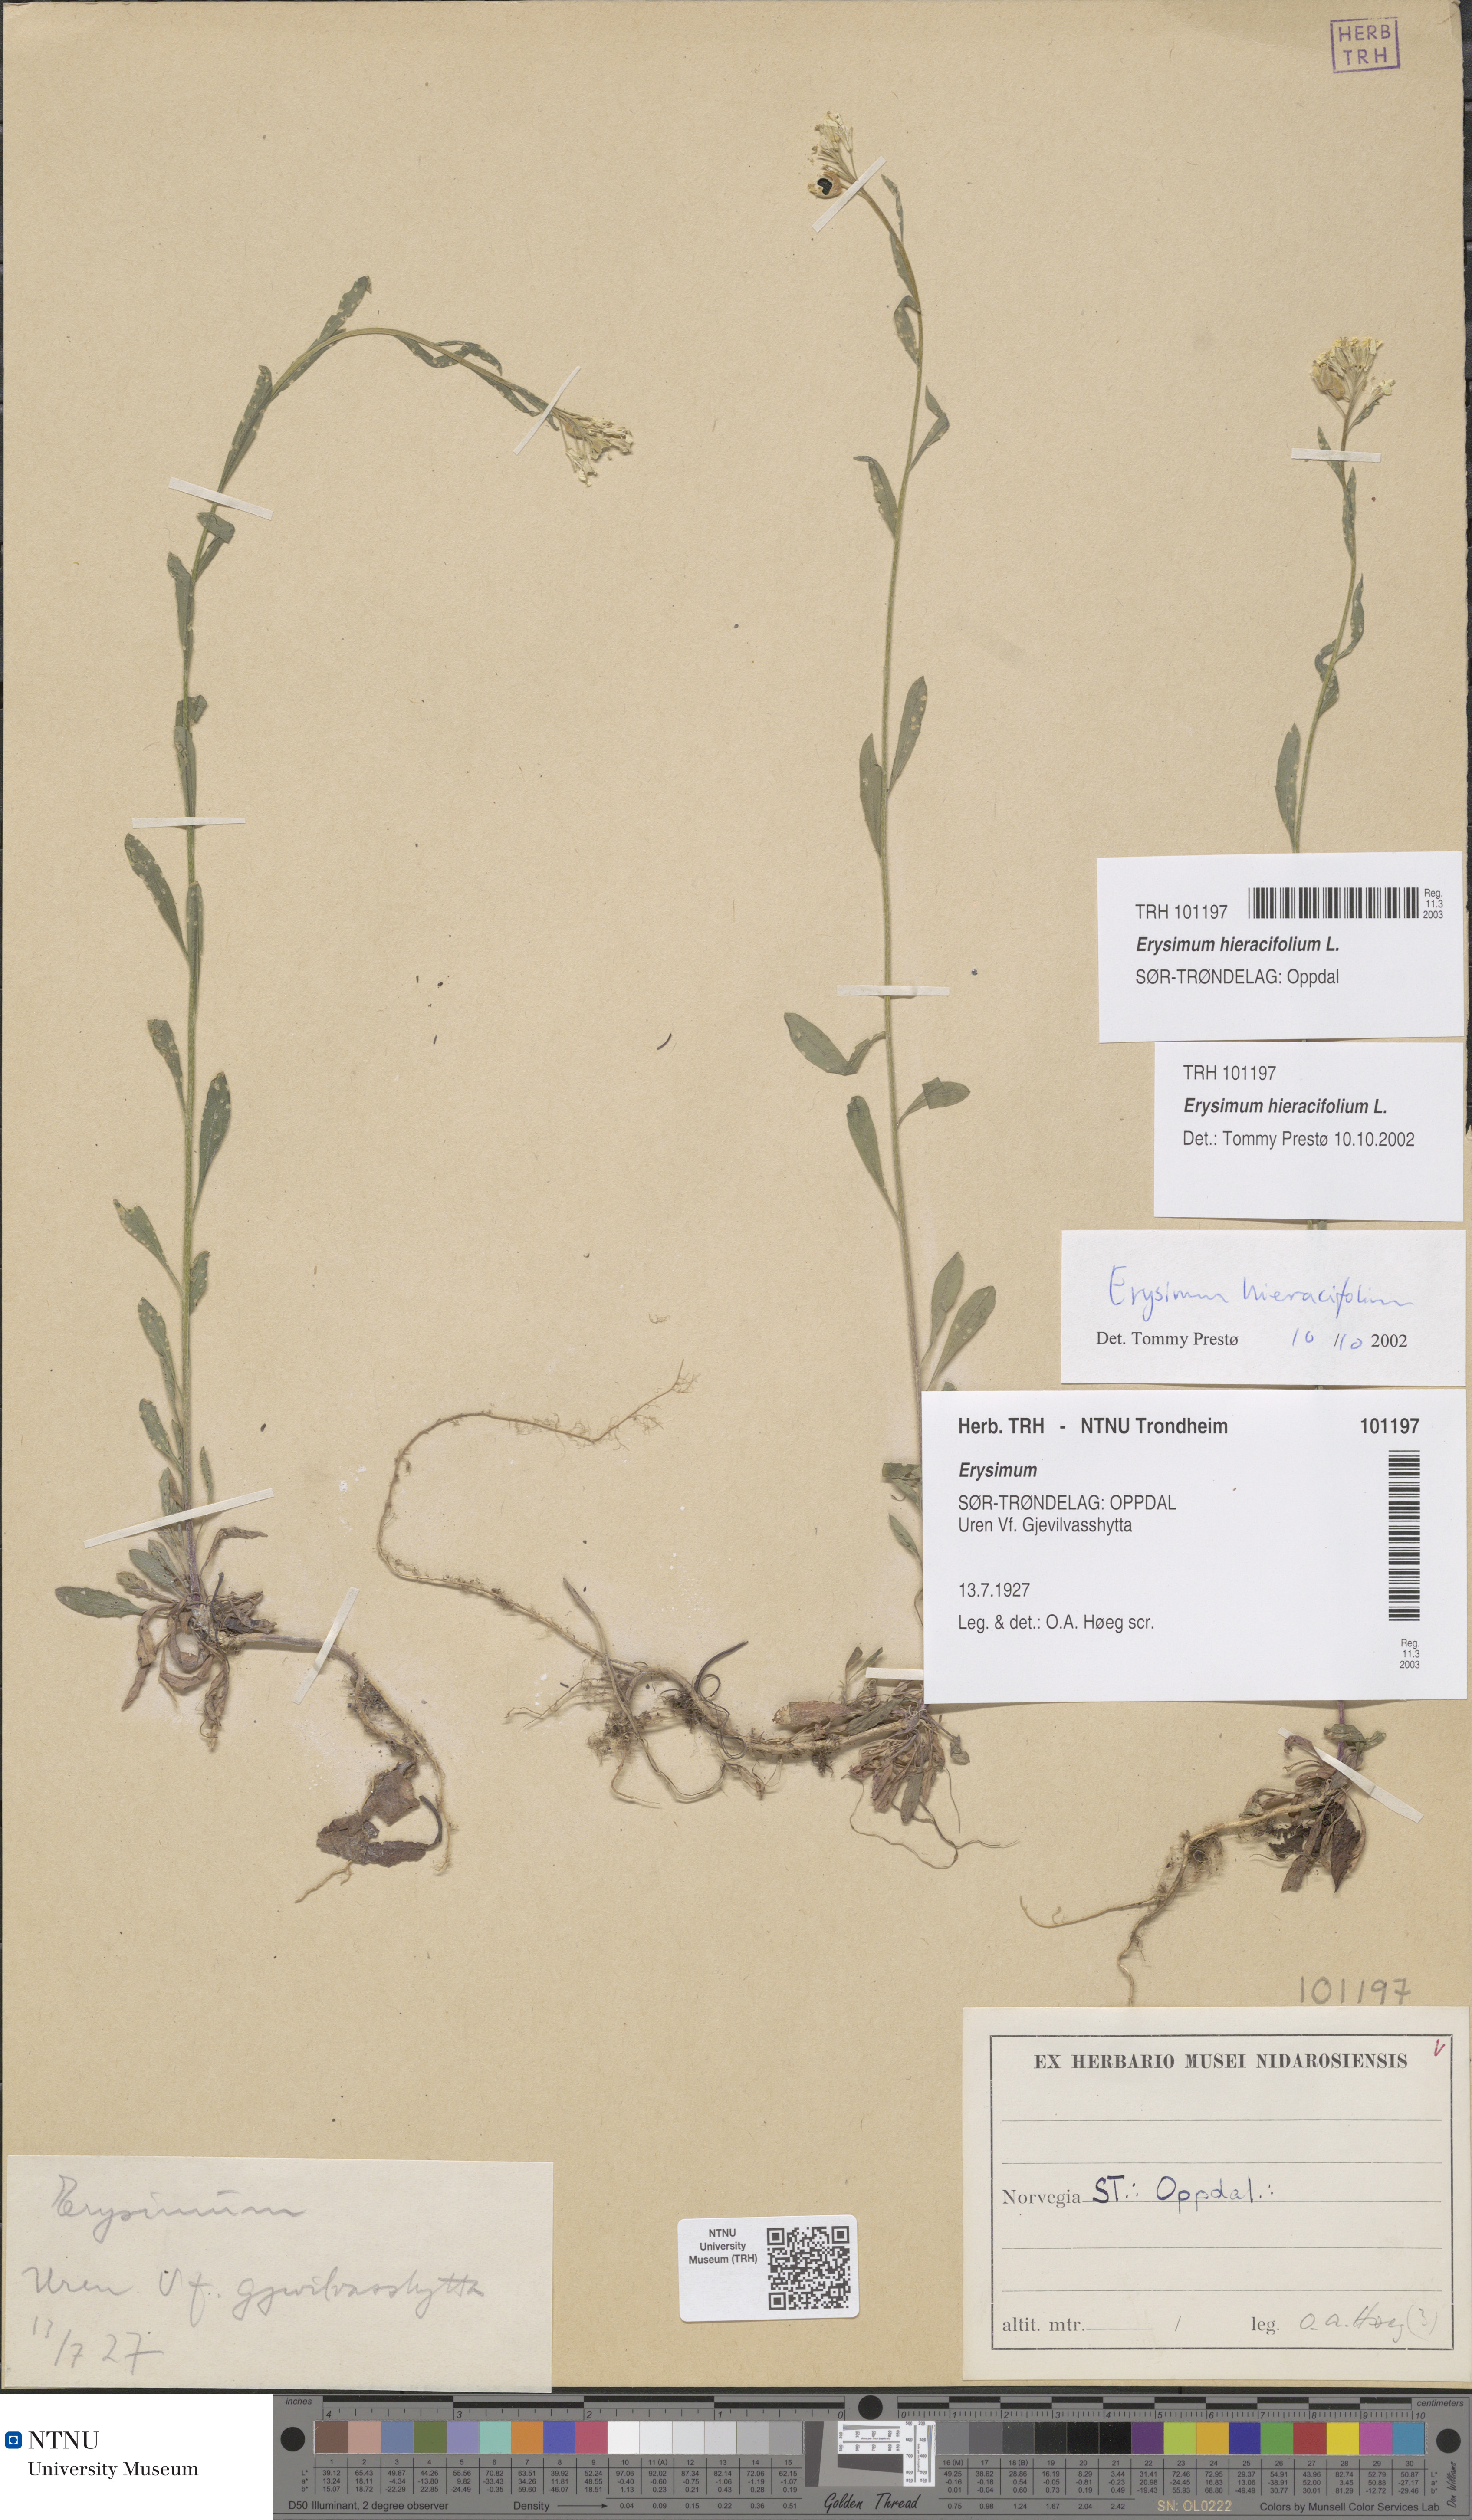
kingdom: Plantae
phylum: Tracheophyta
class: Magnoliopsida
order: Brassicales
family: Brassicaceae
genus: Erysimum
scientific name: Erysimum virgatum
